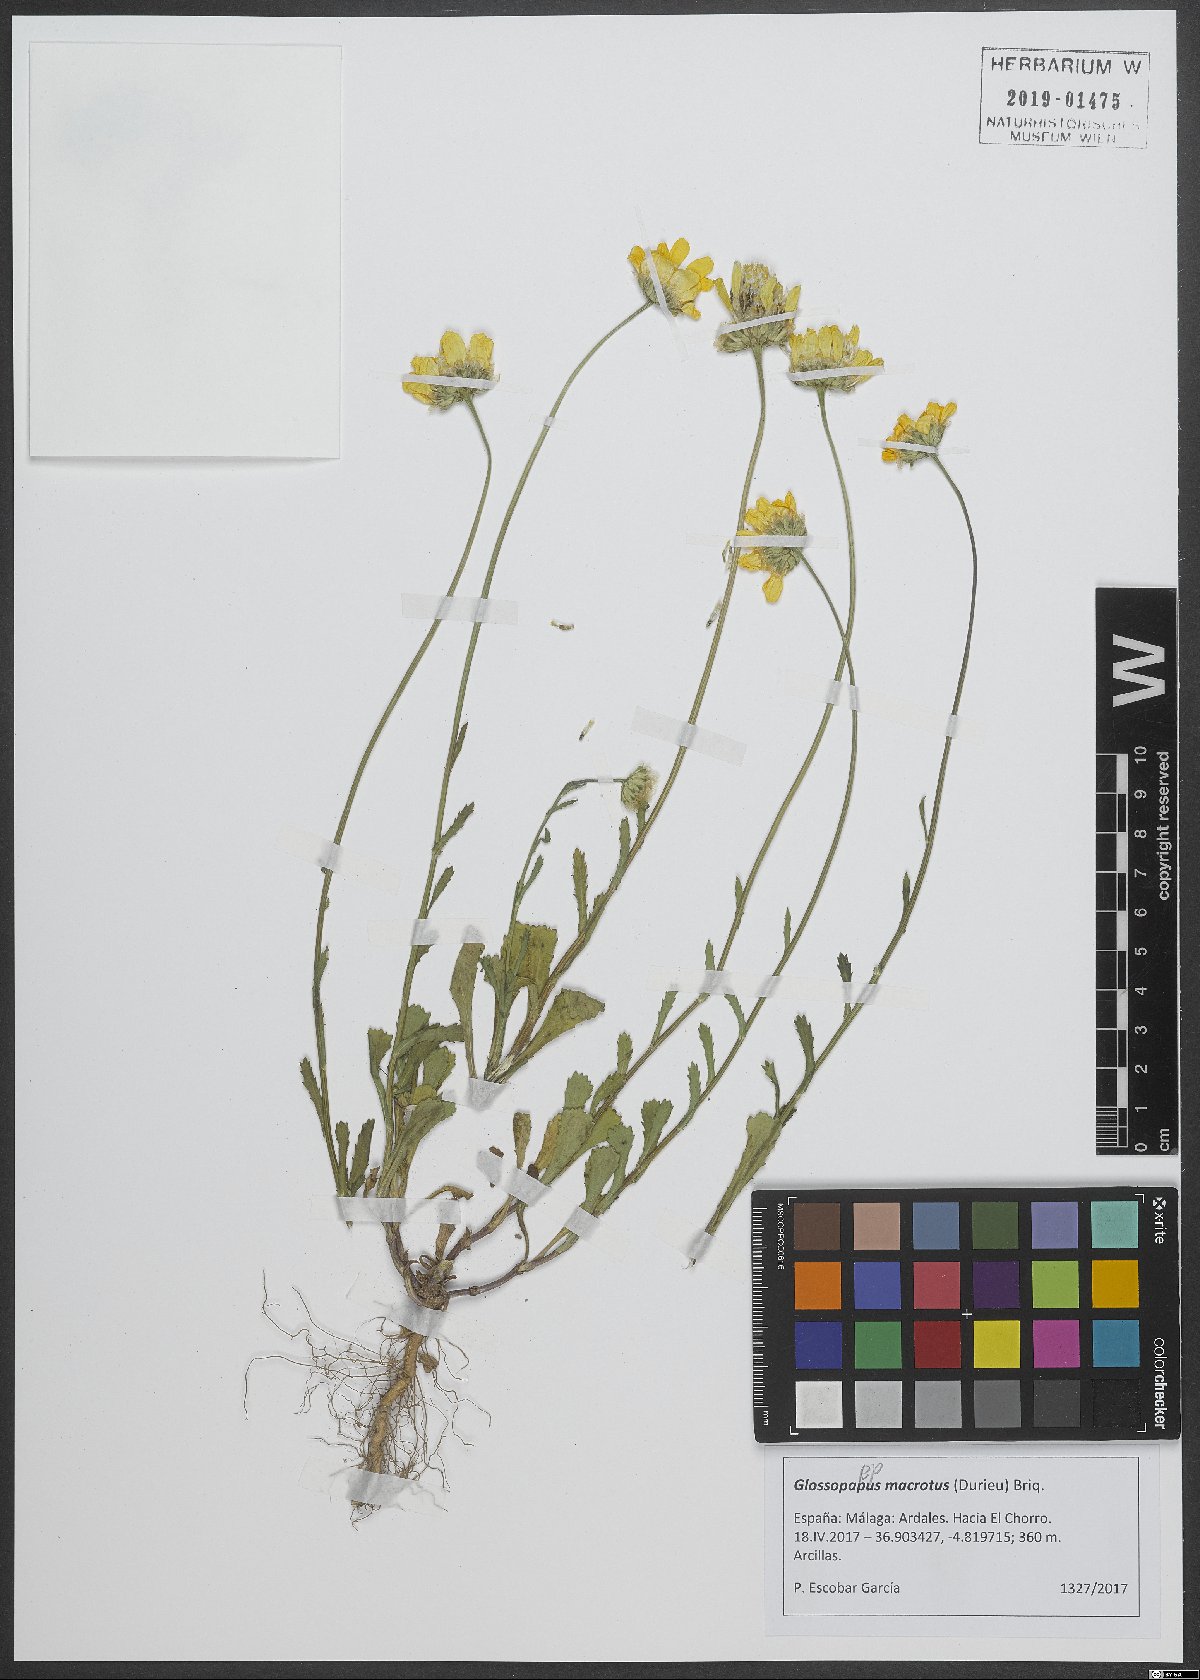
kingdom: Plantae
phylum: Tracheophyta
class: Magnoliopsida
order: Asterales
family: Asteraceae
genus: Glossopappus
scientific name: Glossopappus macrotus
